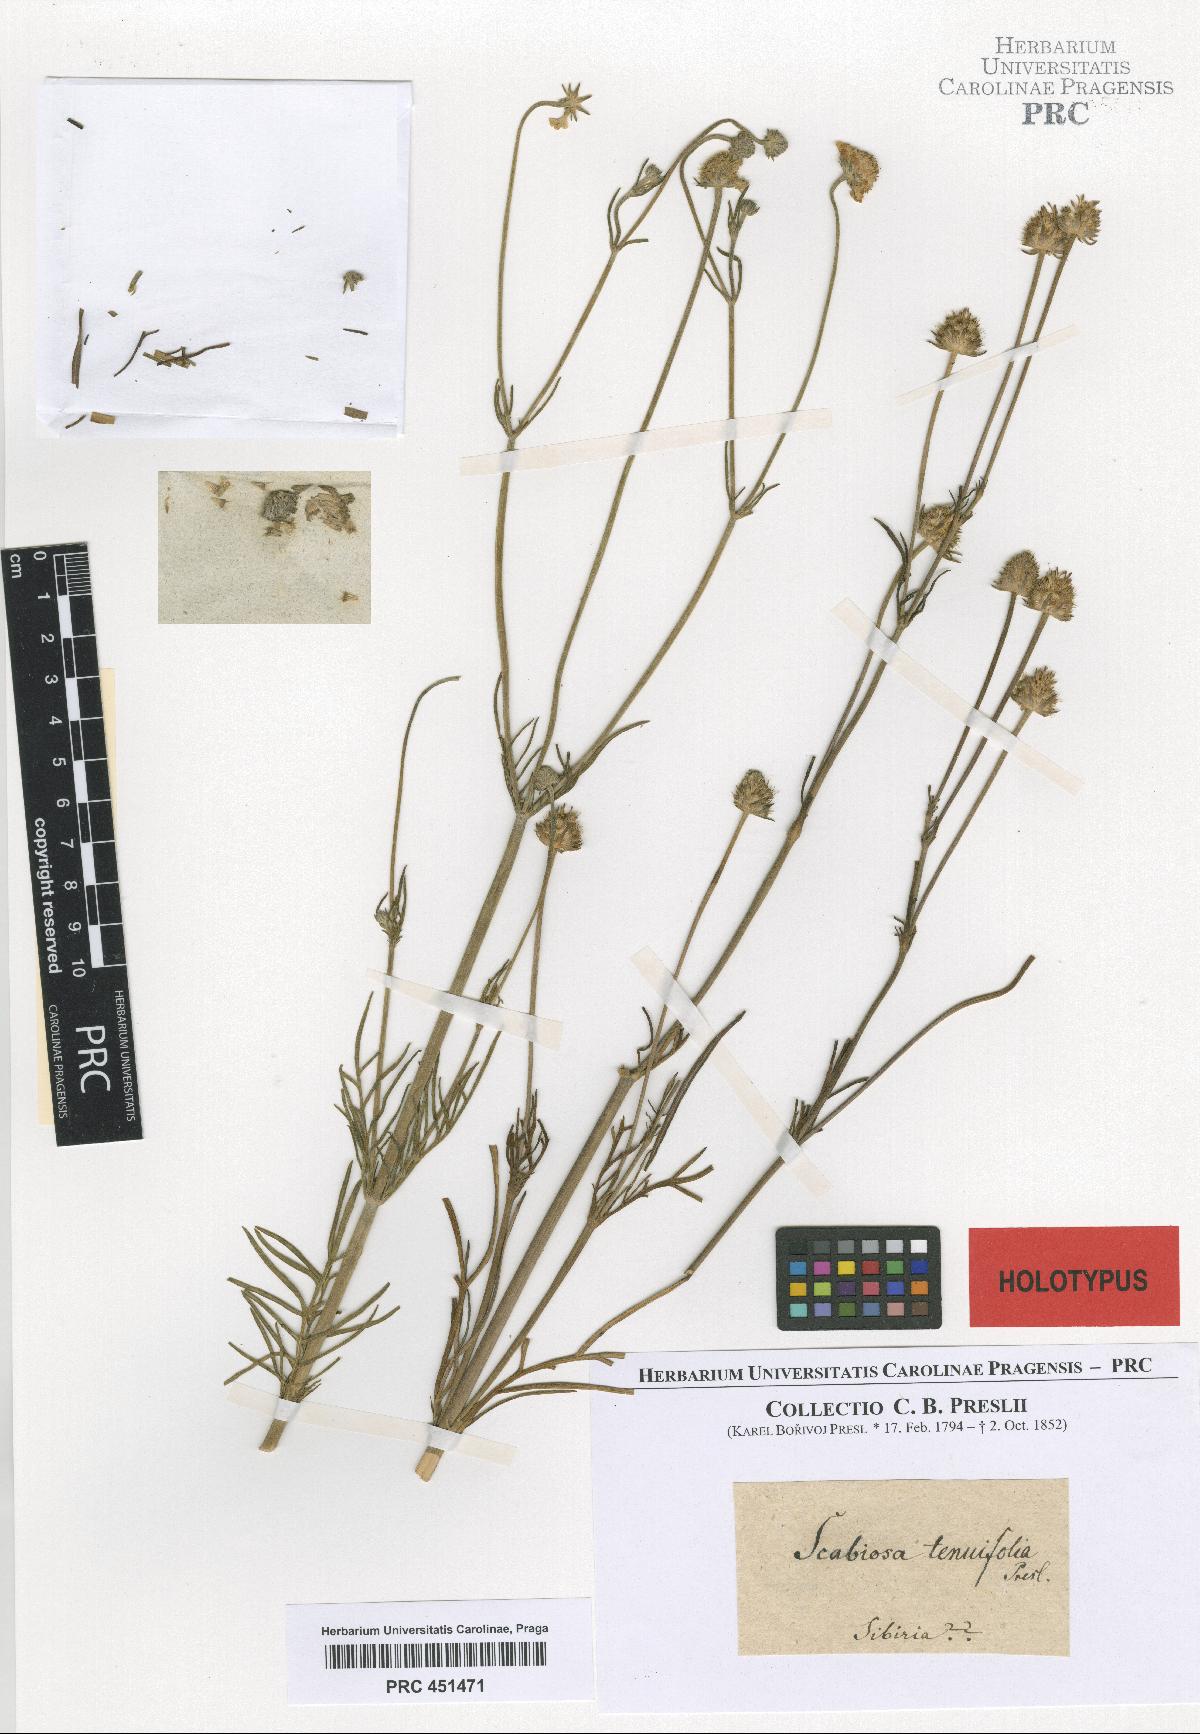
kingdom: Plantae
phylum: Tracheophyta
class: Magnoliopsida
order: Dipsacales
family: Caprifoliaceae
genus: Scabiosa
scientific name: Scabiosa tenuifolia
